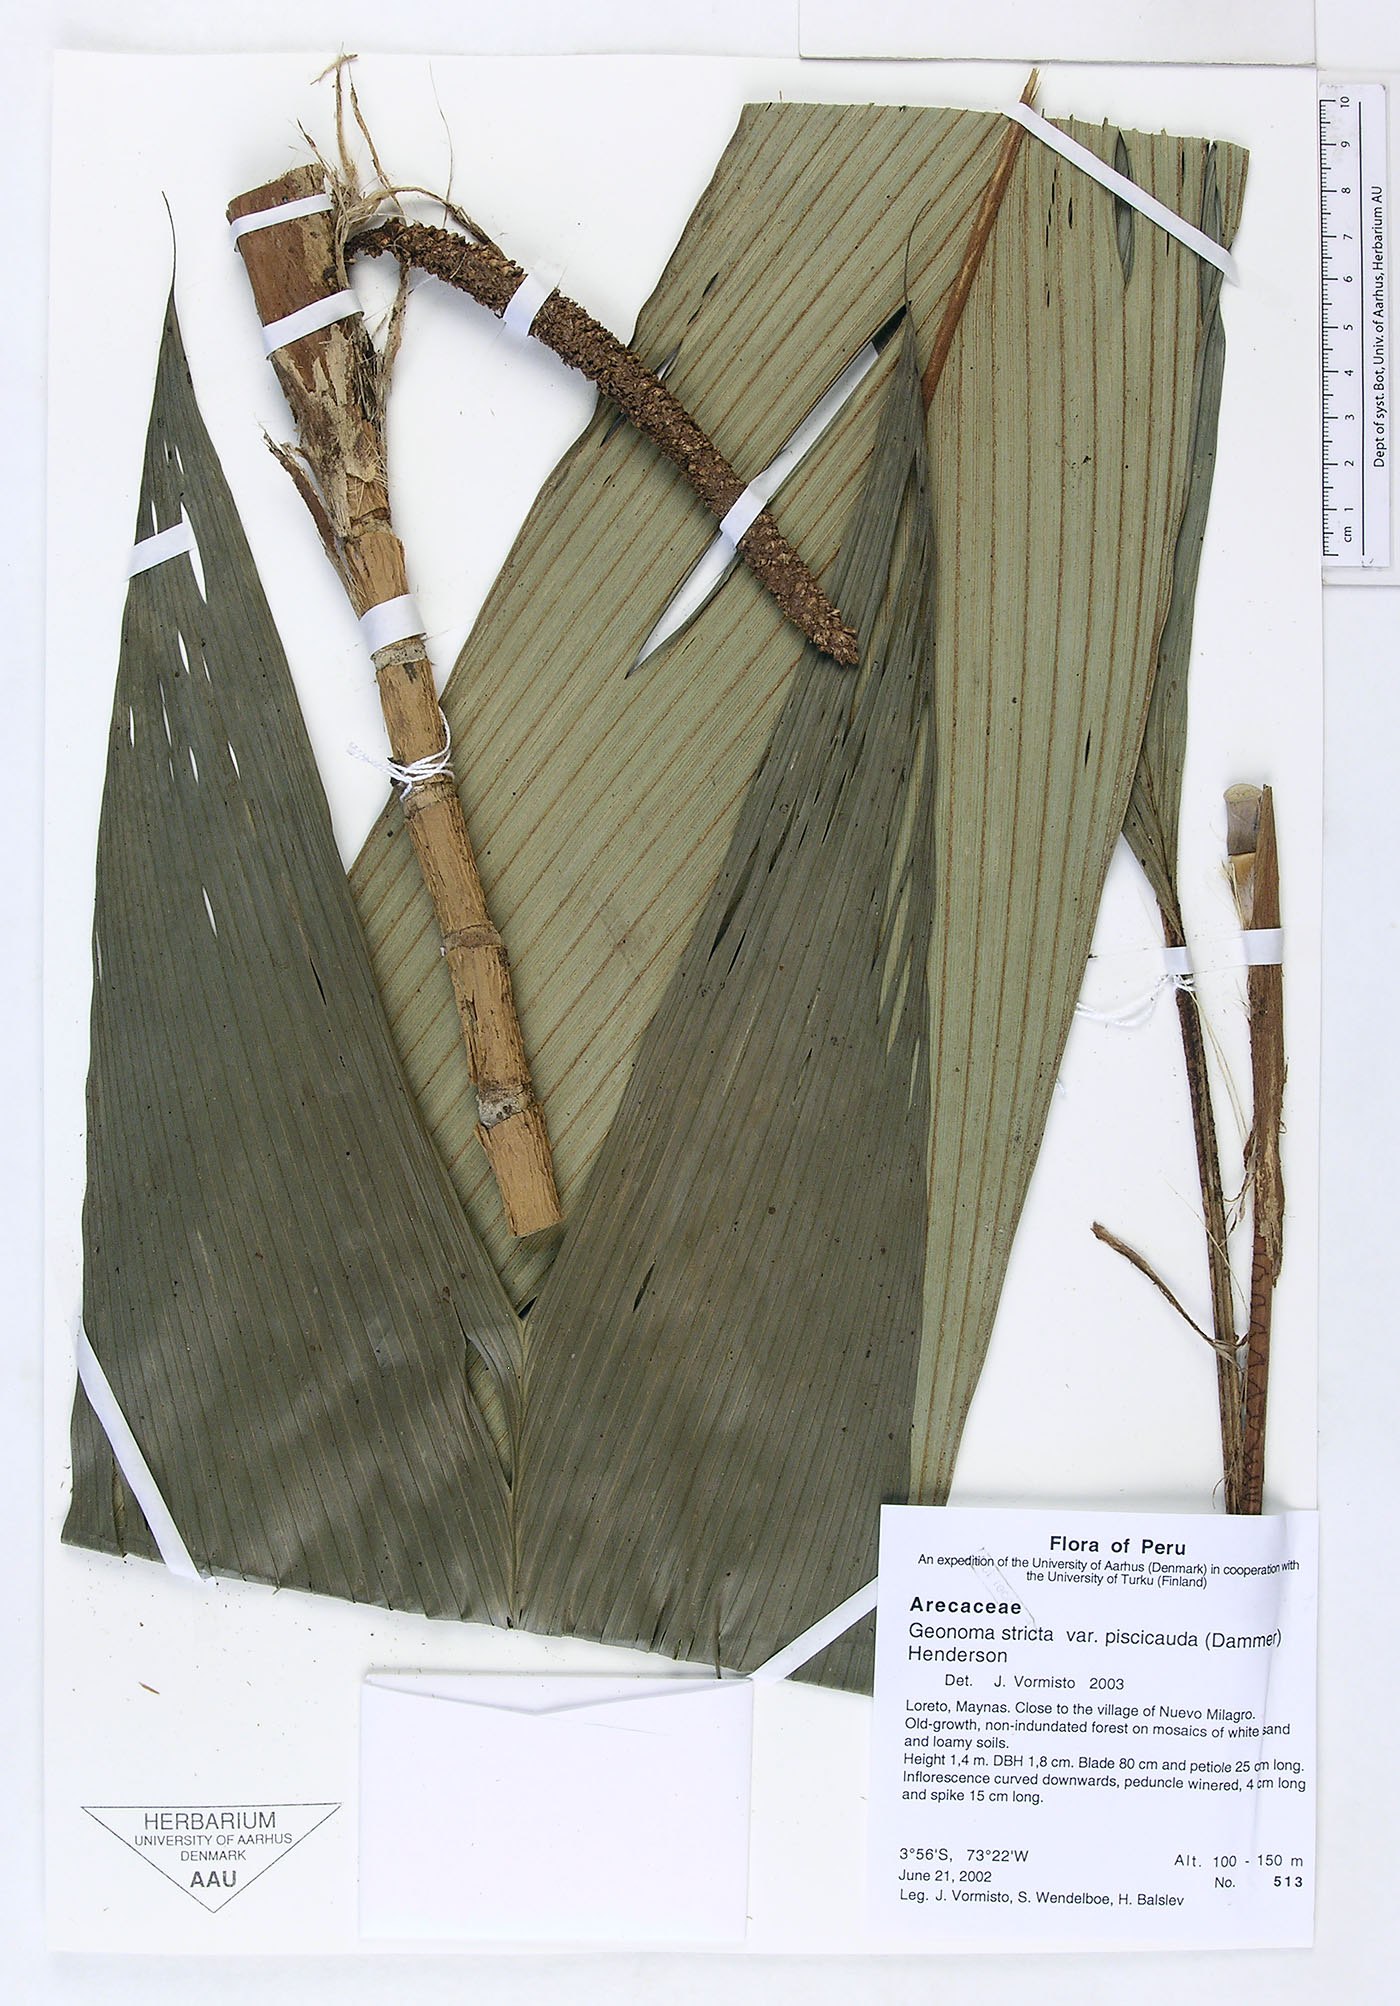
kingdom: Plantae
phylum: Tracheophyta
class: Liliopsida
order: Arecales
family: Arecaceae
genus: Geonoma
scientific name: Geonoma stricta
